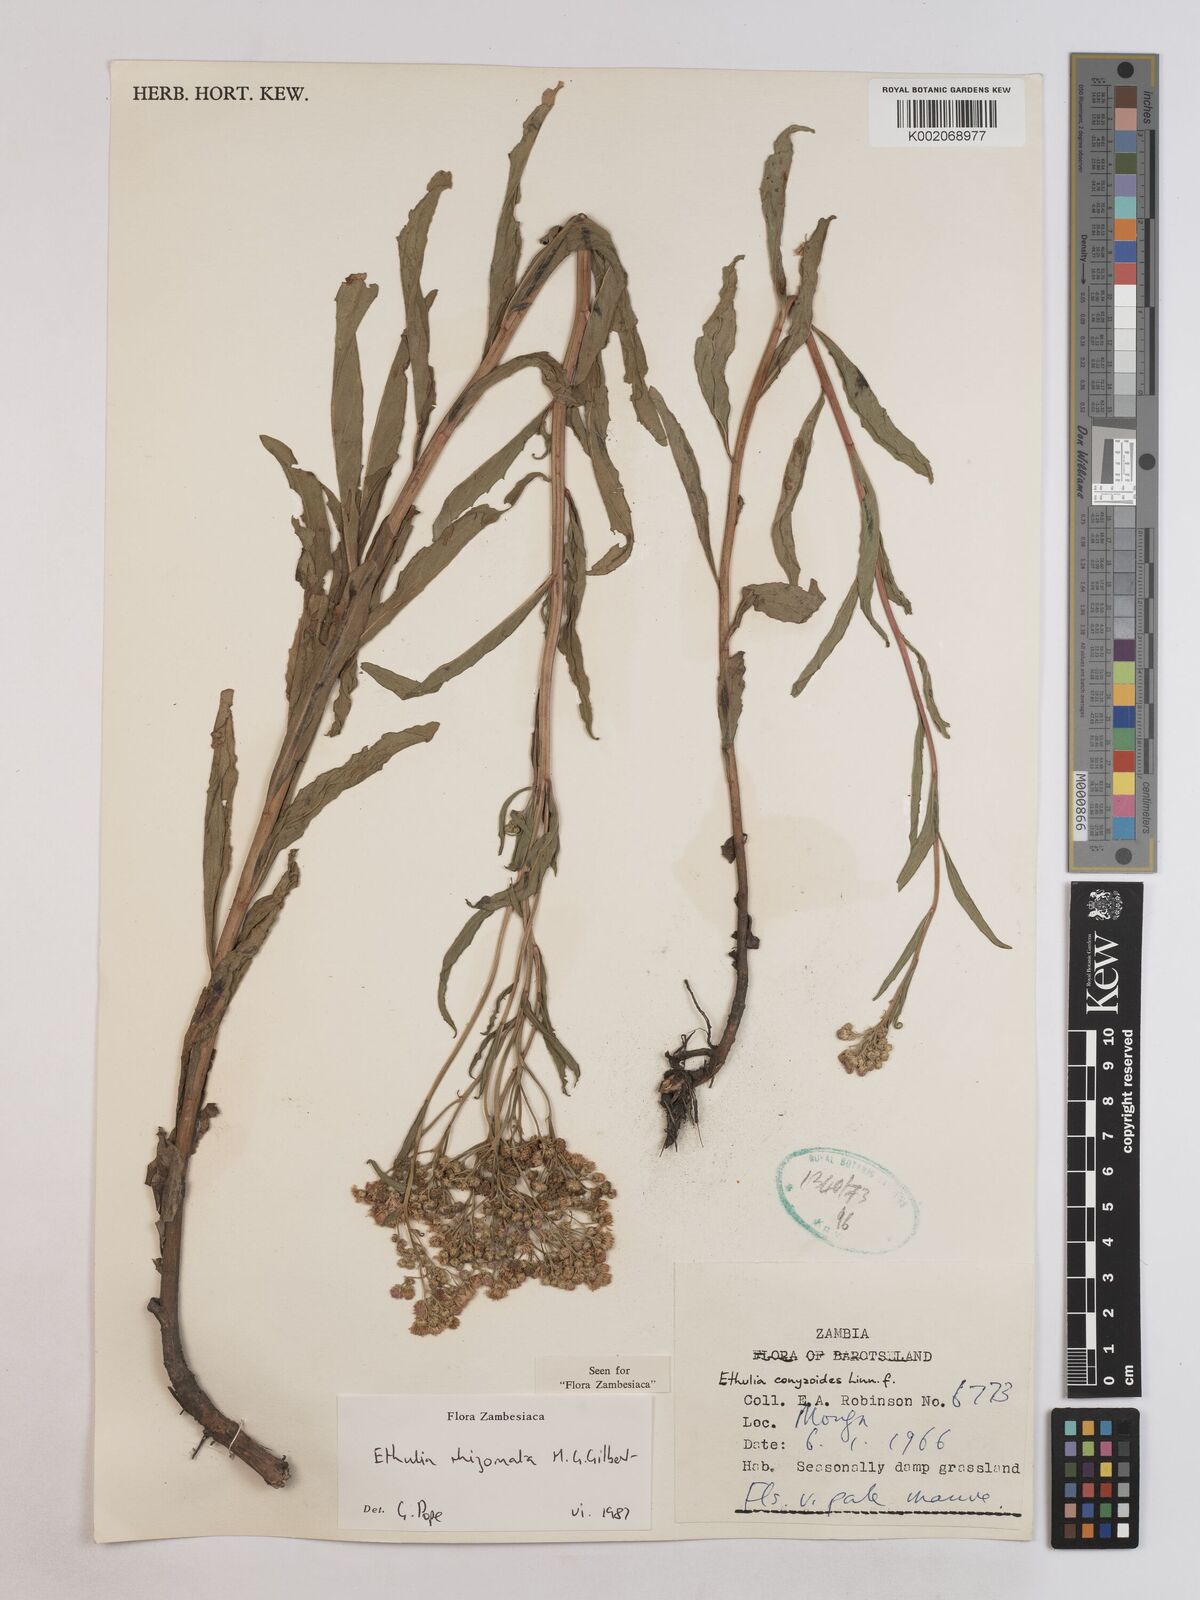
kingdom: Plantae
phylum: Tracheophyta
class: Magnoliopsida
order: Asterales
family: Asteraceae
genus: Ethulia
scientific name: Ethulia rhizomata
